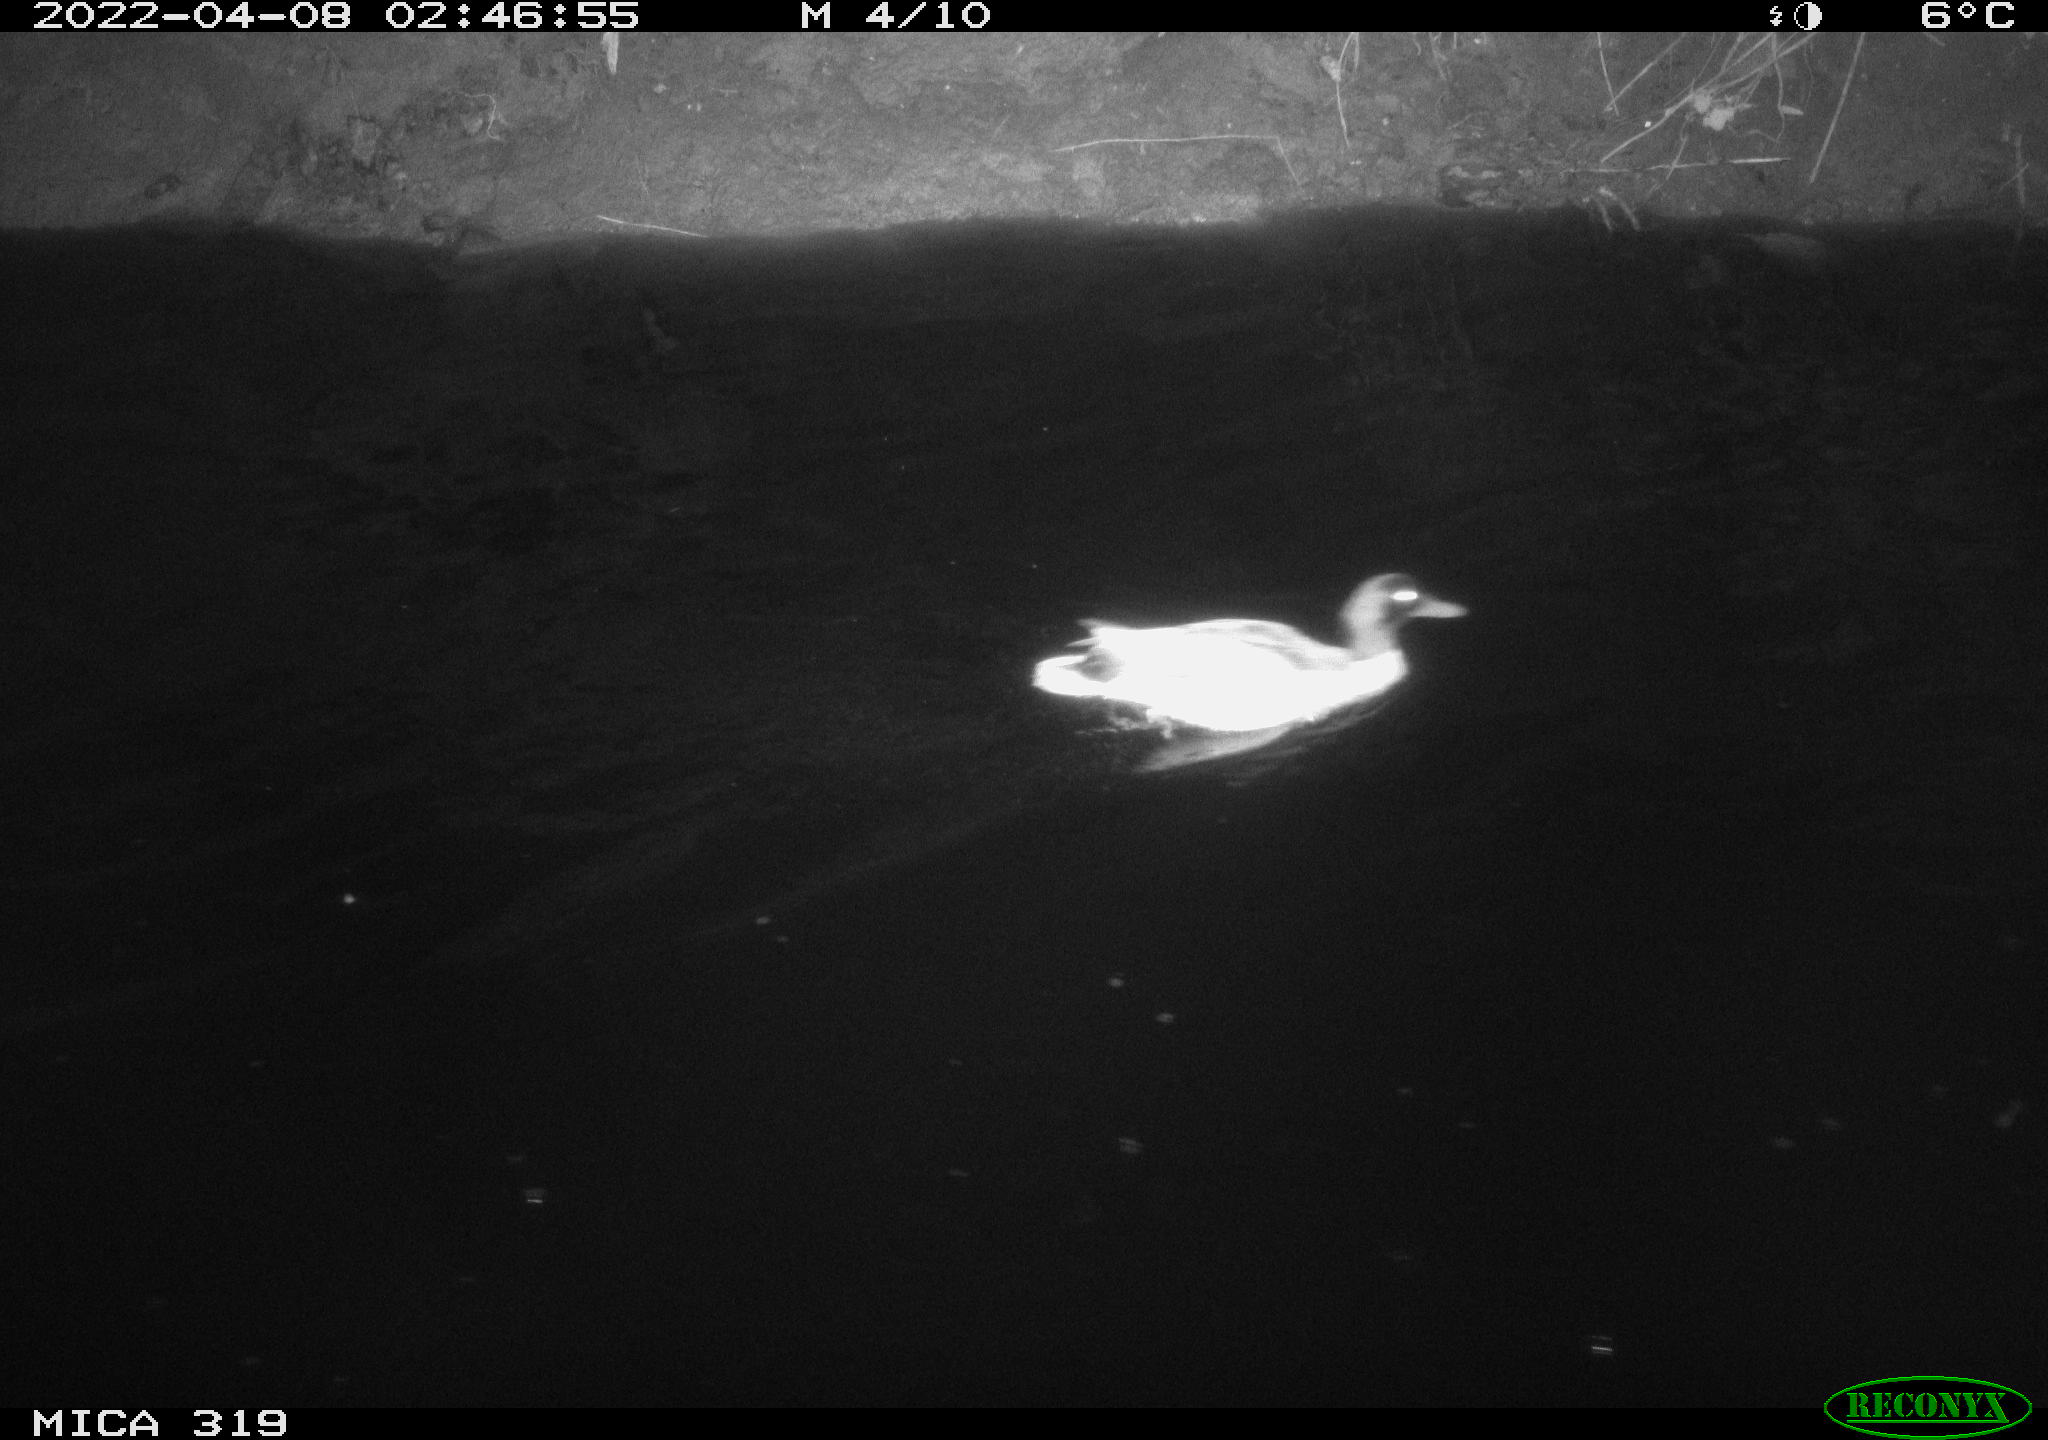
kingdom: Animalia
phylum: Chordata
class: Aves
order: Anseriformes
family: Anatidae
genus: Anas
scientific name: Anas platyrhynchos
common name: Mallard
